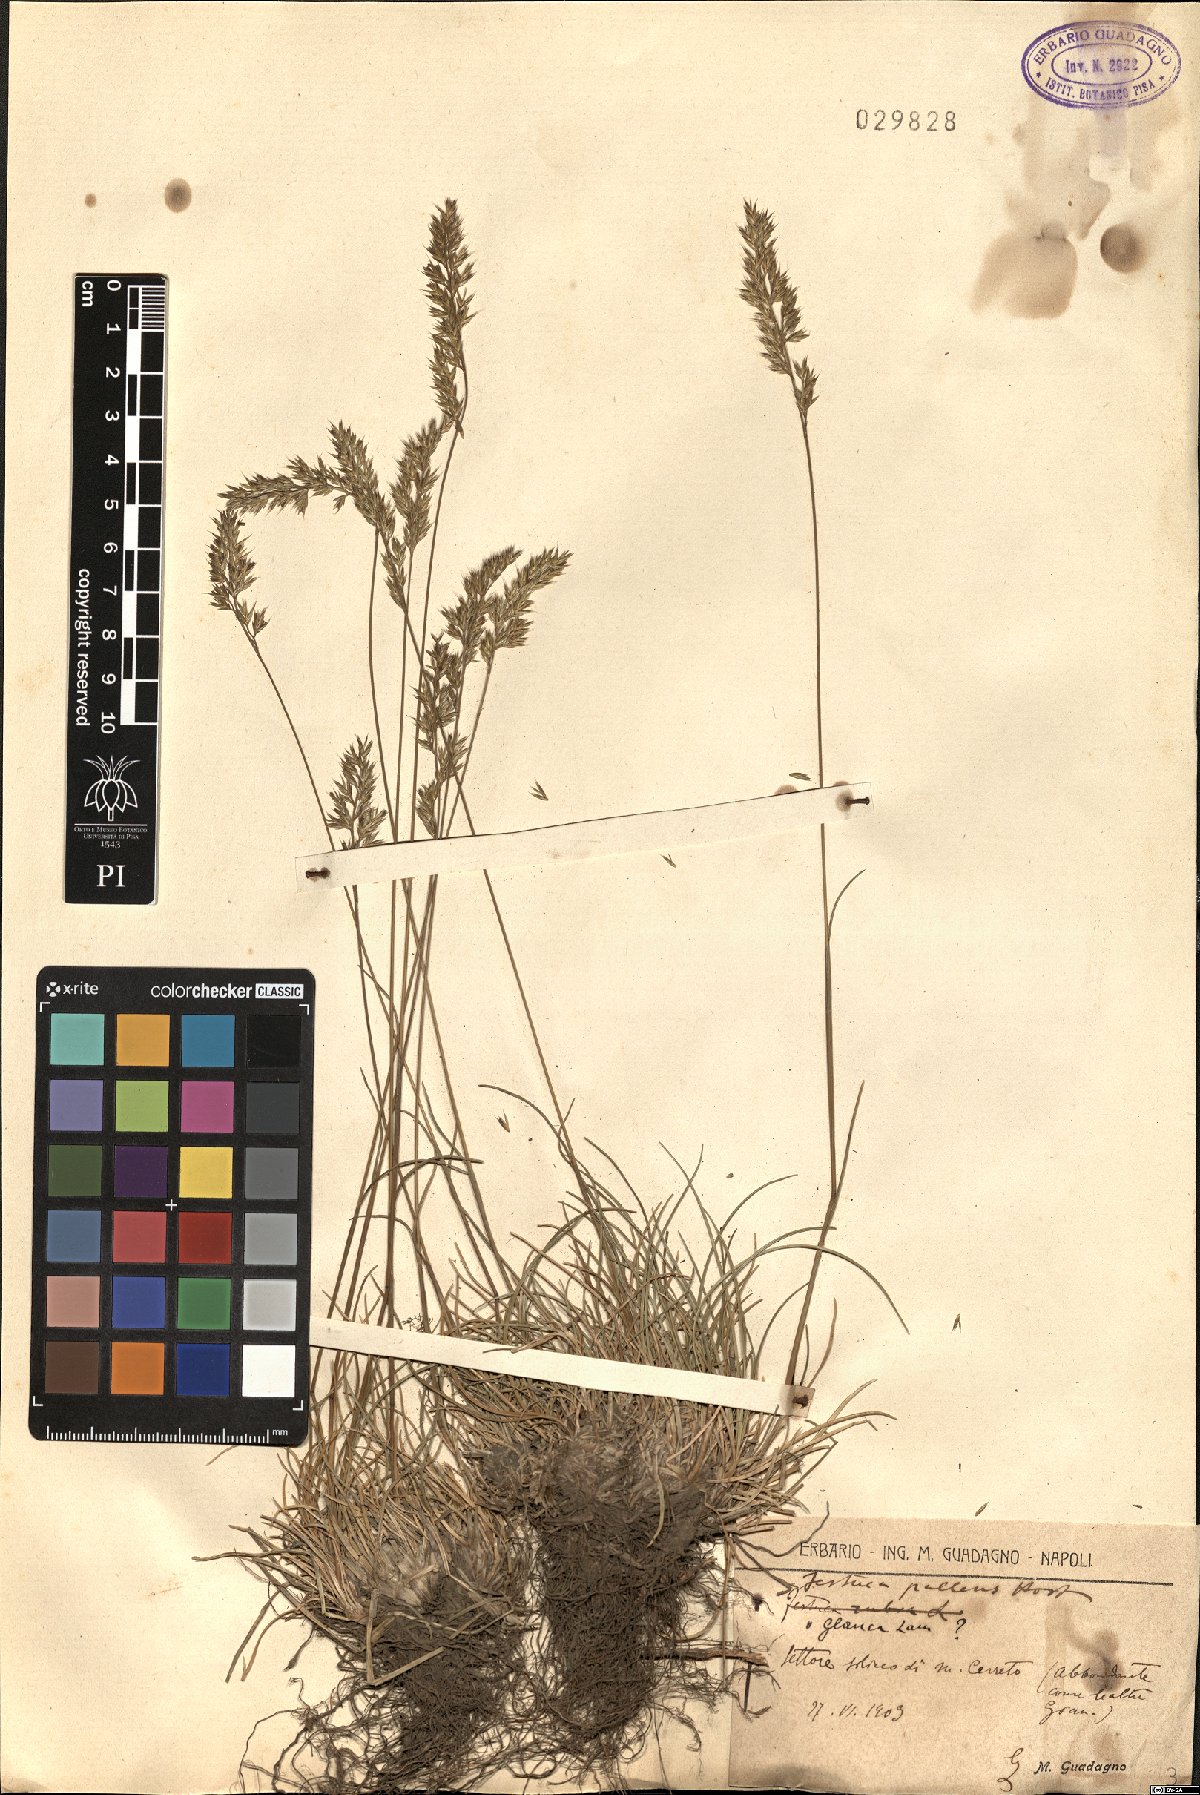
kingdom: Plantae
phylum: Tracheophyta
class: Liliopsida
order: Poales
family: Poaceae
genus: Festuca
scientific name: Festuca circummediterranea
